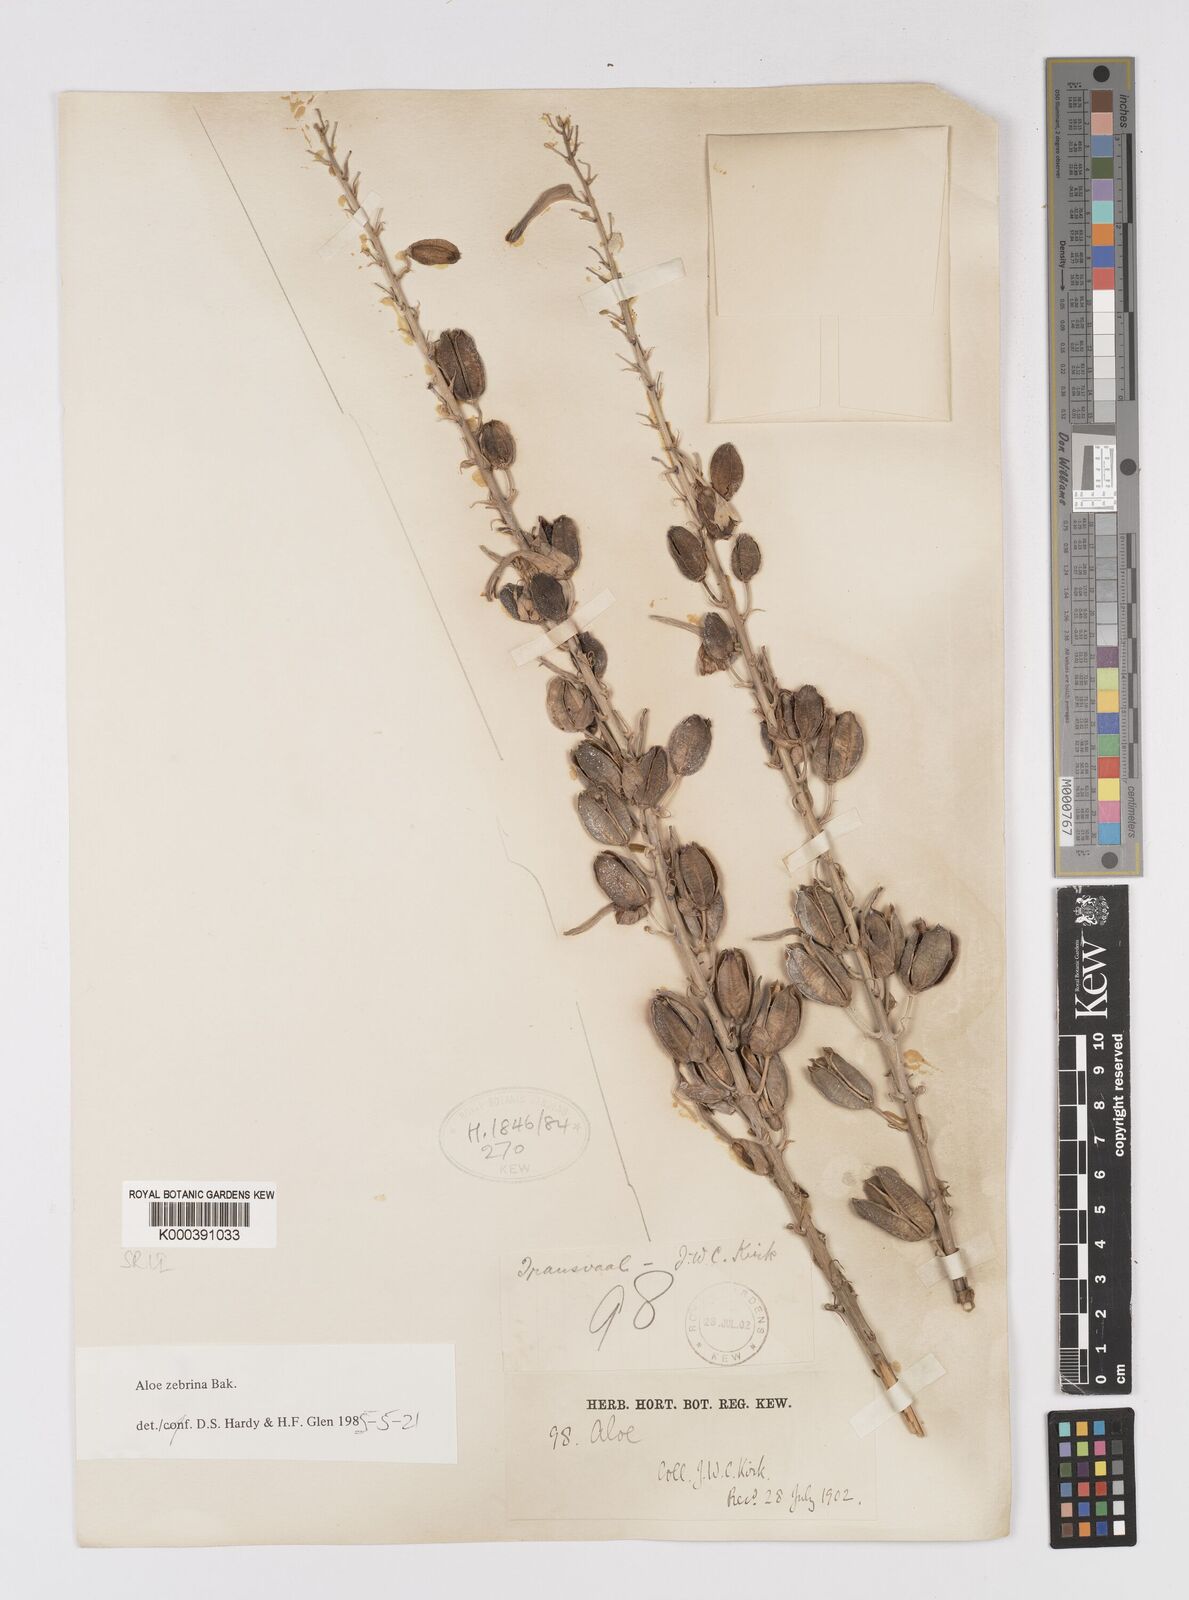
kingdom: Plantae
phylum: Tracheophyta
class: Liliopsida
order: Asparagales
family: Asphodelaceae
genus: Aloe
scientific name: Aloe zebrina
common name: Zebra-leaf aloe
